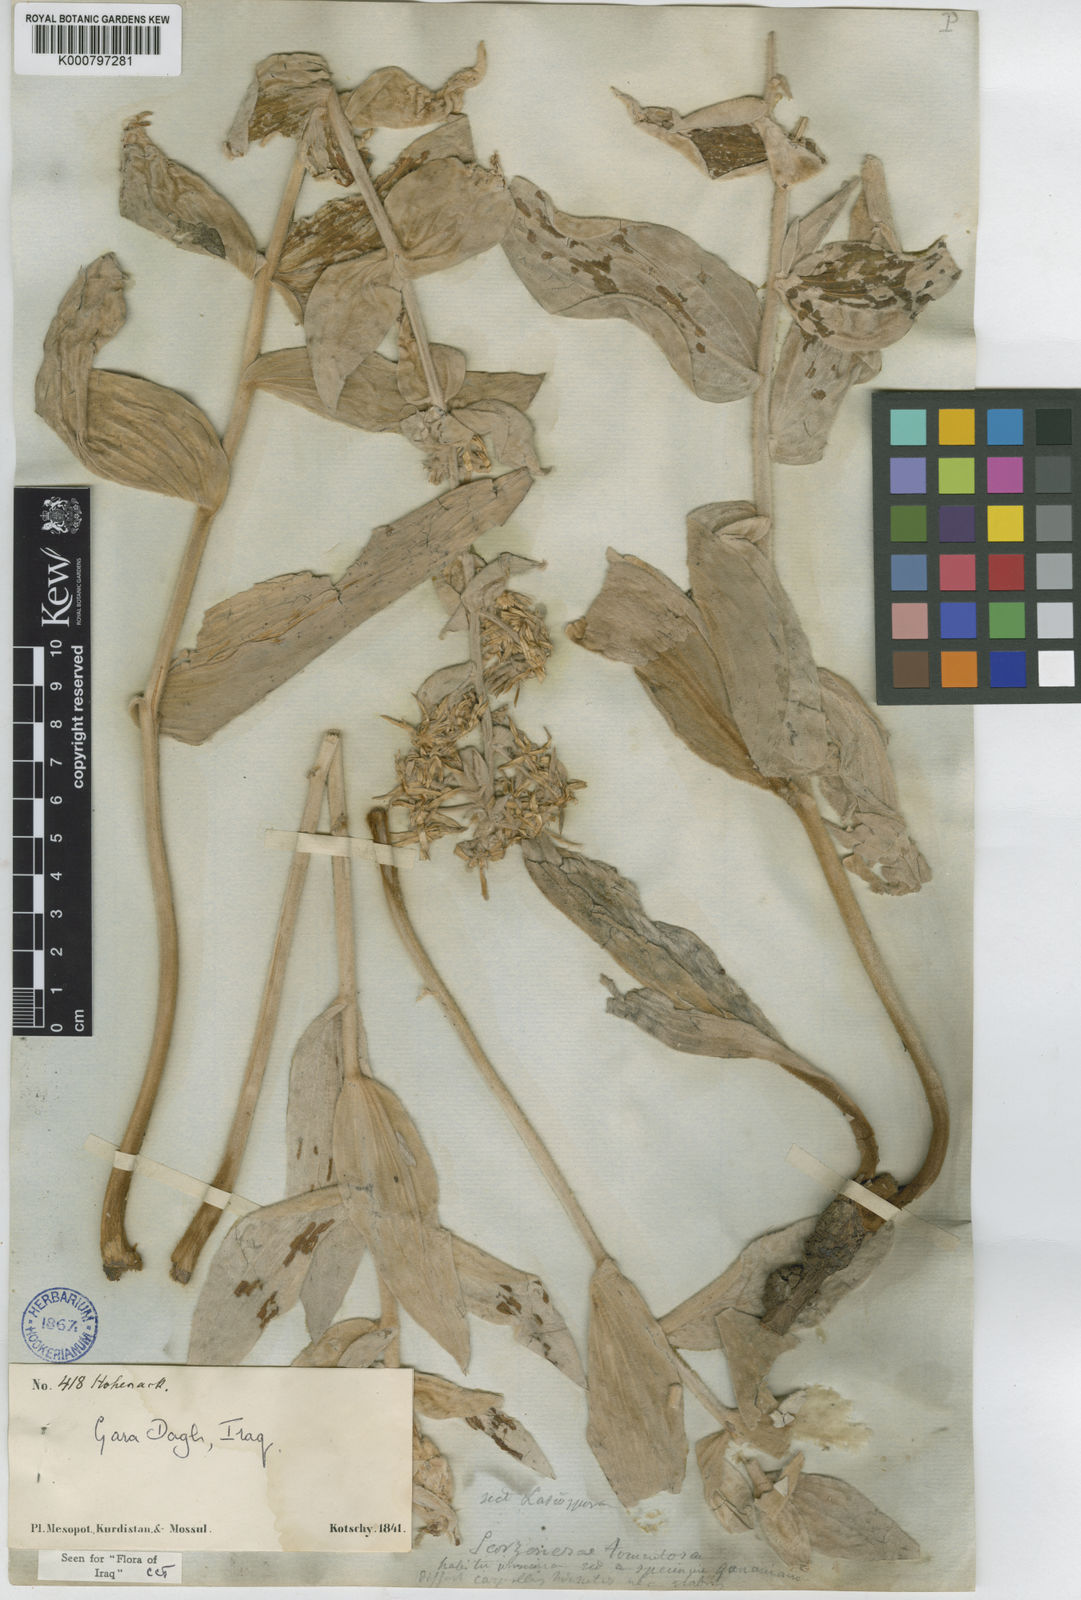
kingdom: Plantae
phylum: Tracheophyta
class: Magnoliopsida
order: Asterales
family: Asteraceae
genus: Guneria
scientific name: Guneria veratrifolia
